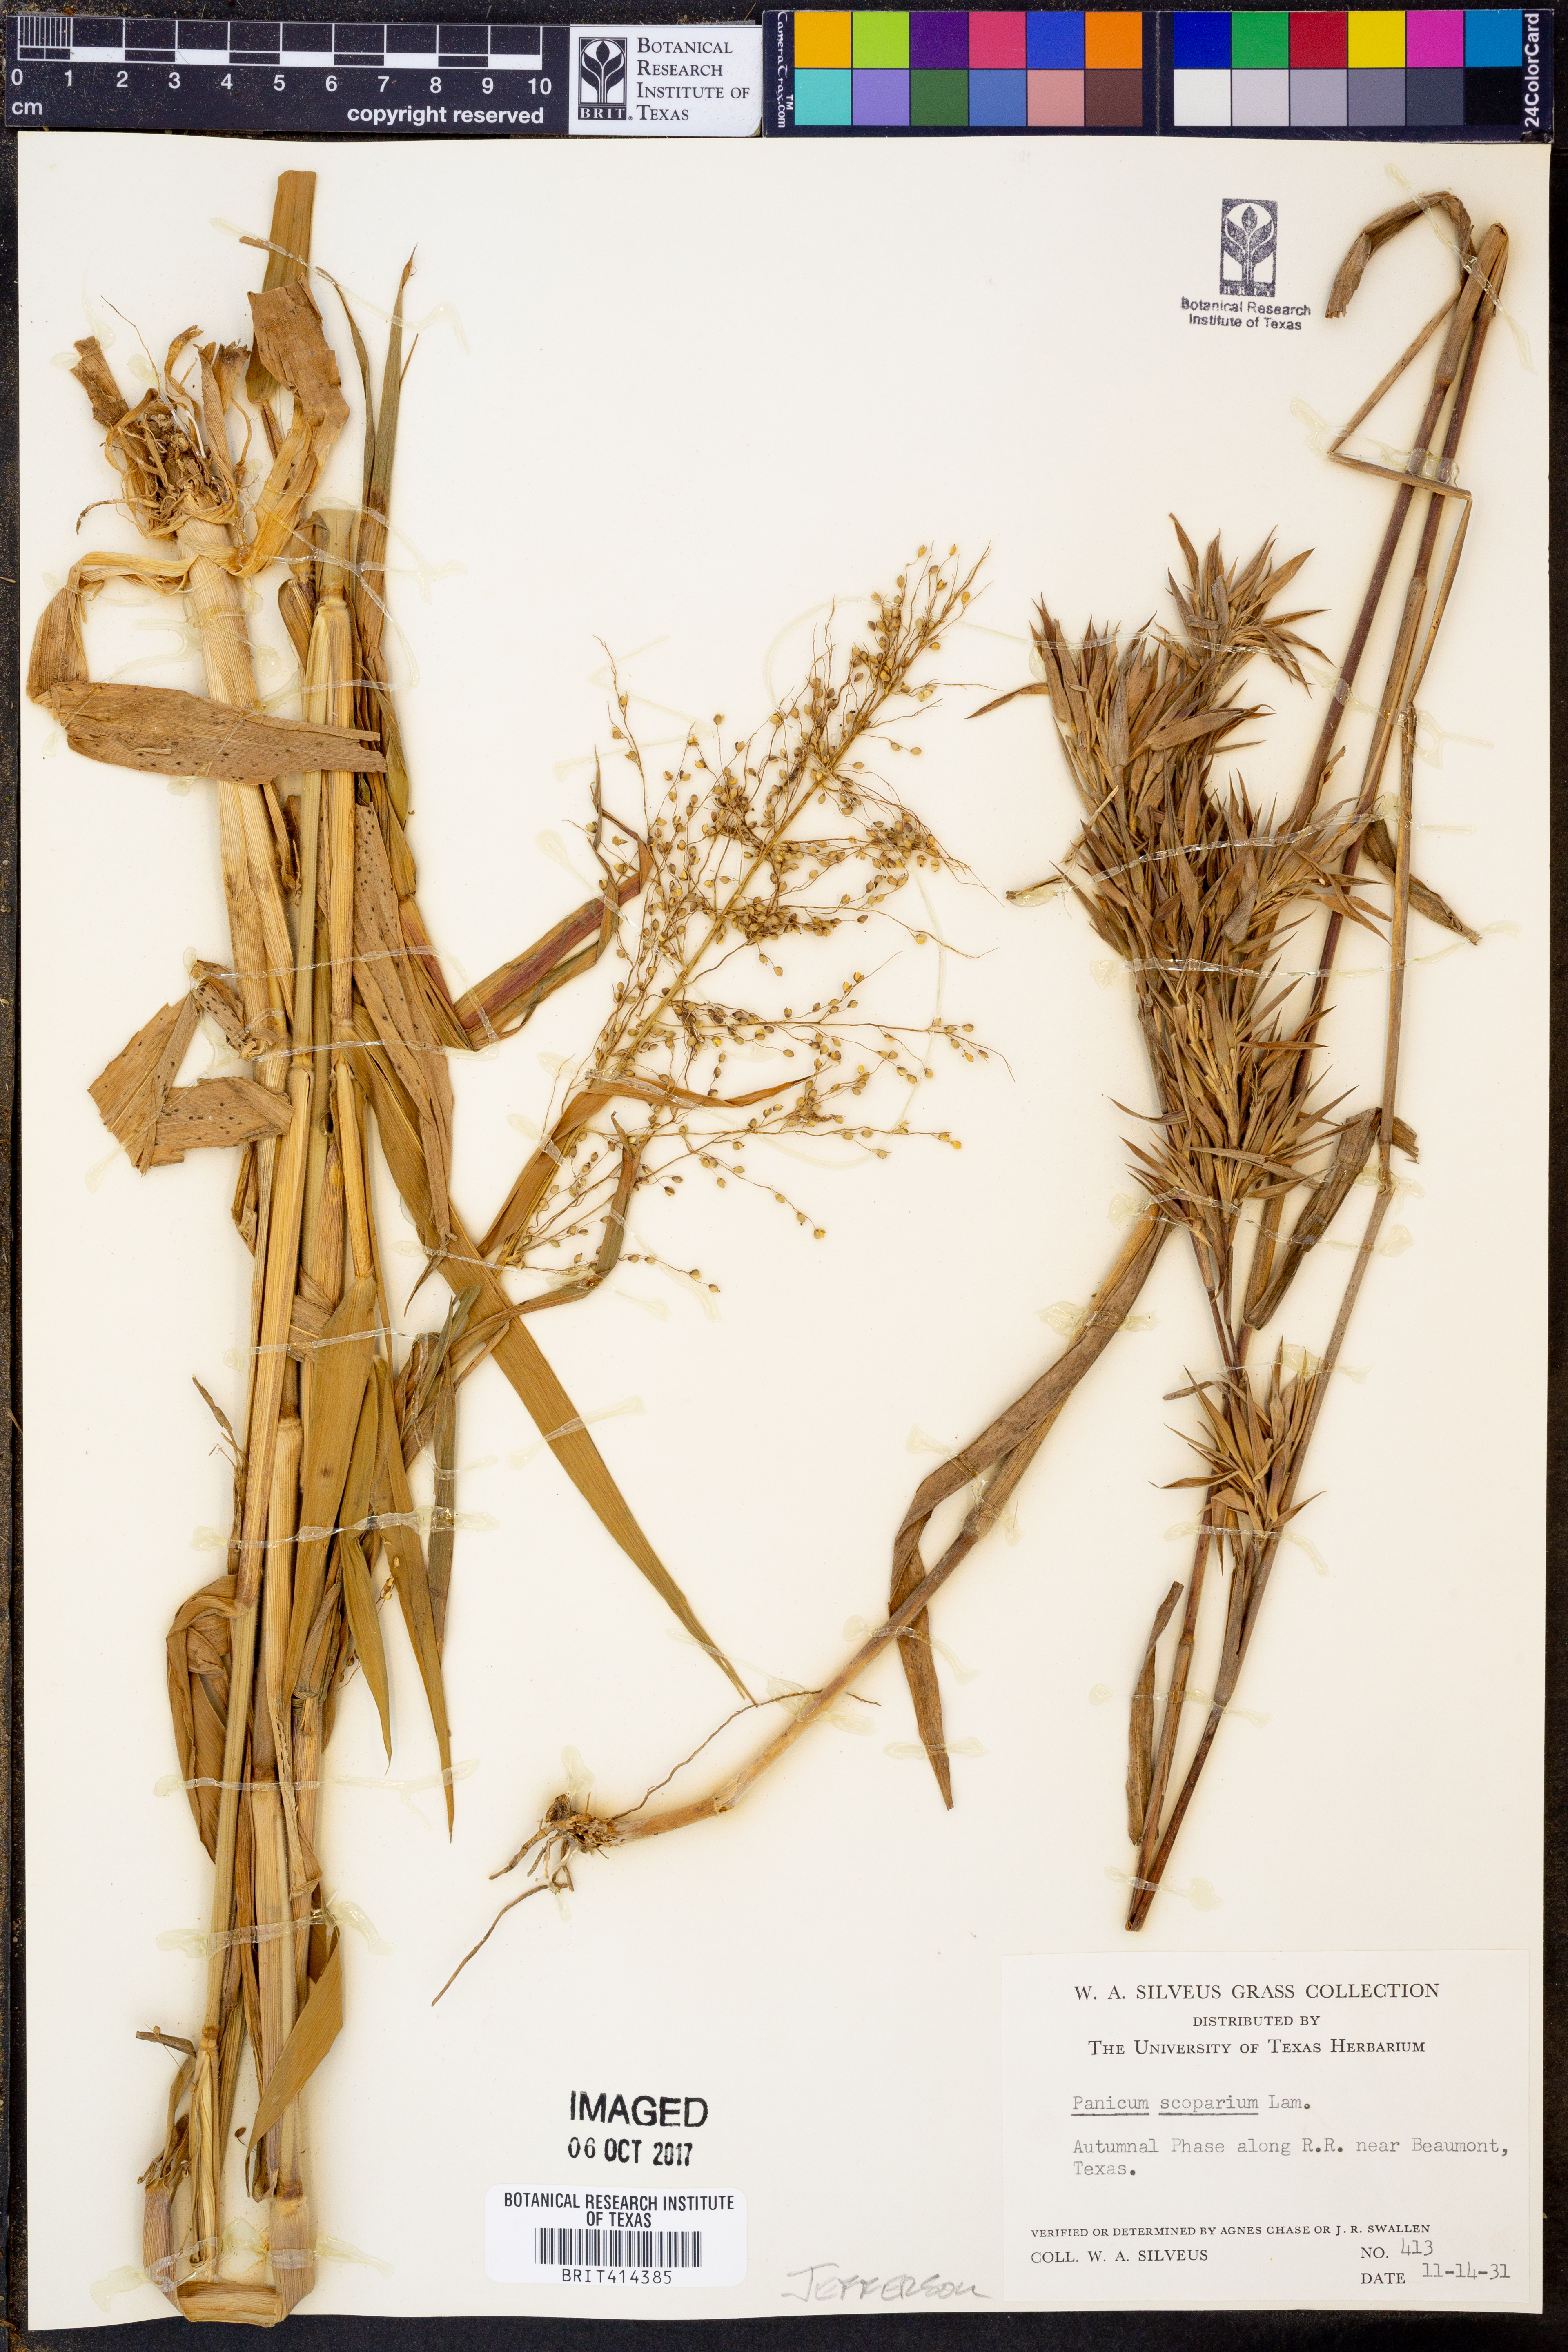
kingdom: Plantae
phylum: Tracheophyta
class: Liliopsida
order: Poales
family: Poaceae
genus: Dichanthelium
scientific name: Dichanthelium scribnerianum
